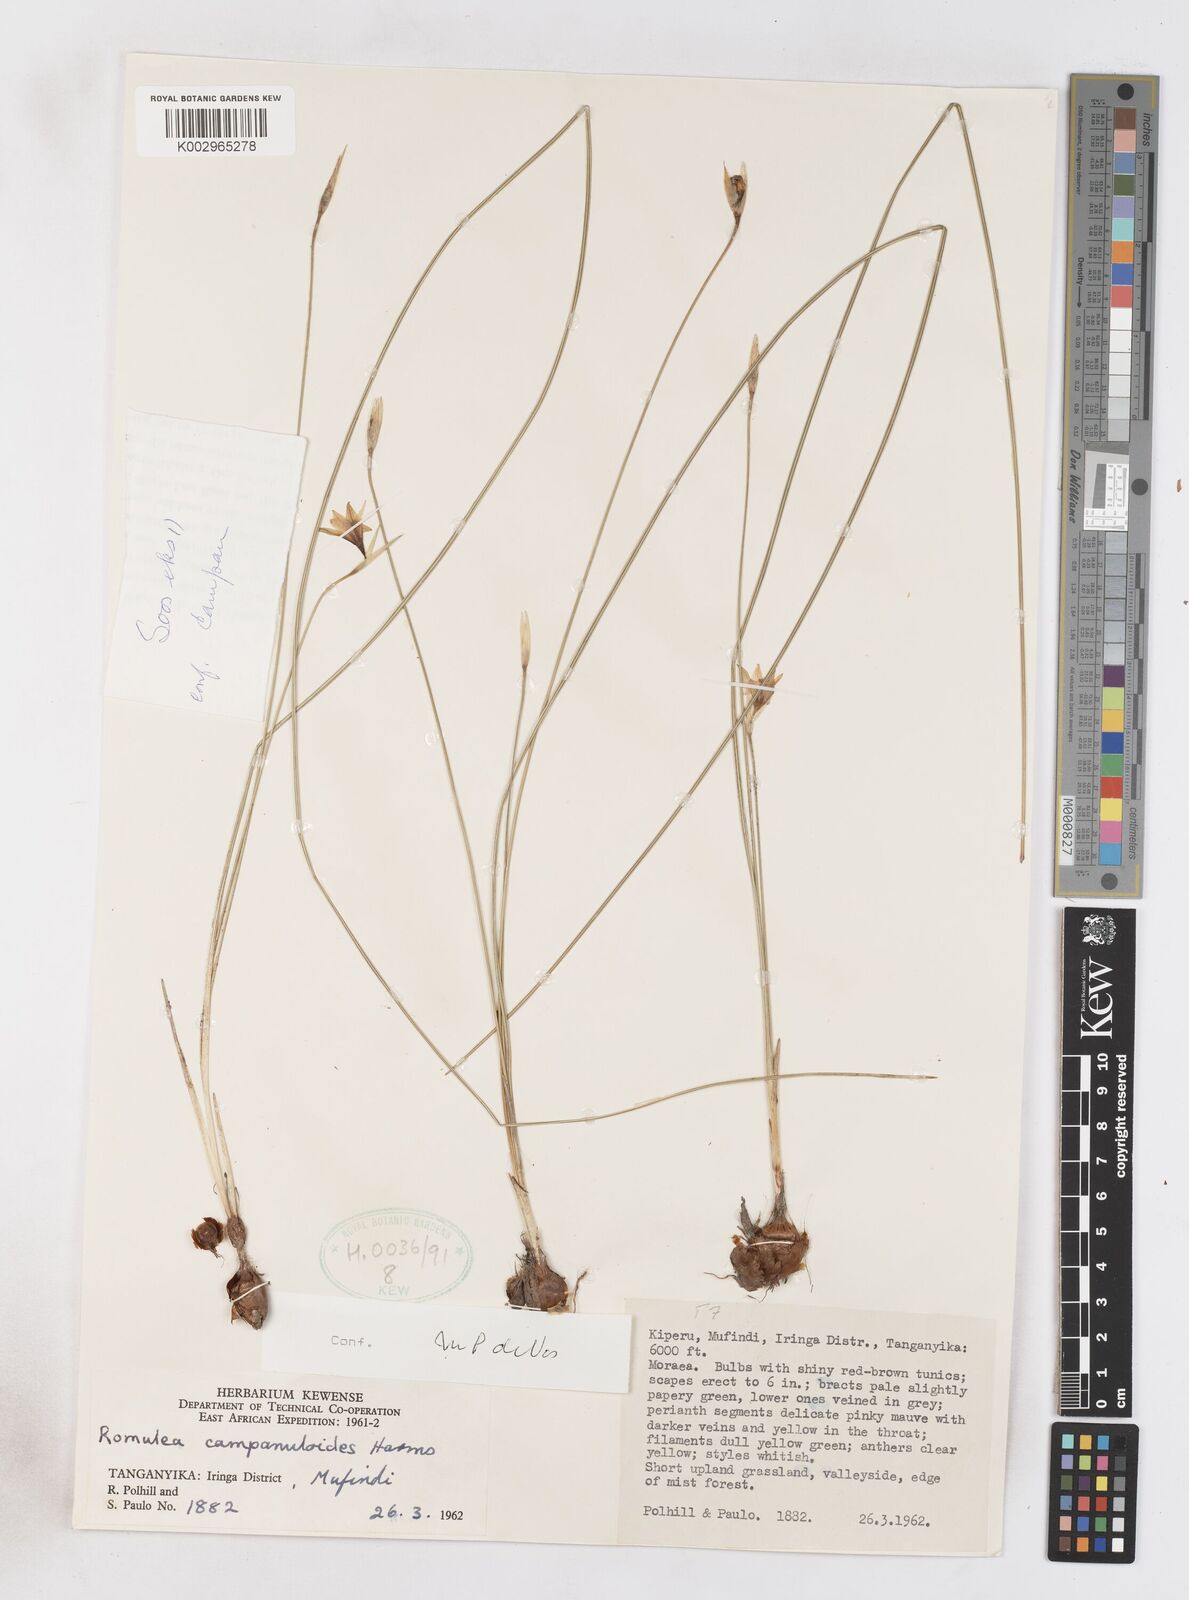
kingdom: Plantae
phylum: Tracheophyta
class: Liliopsida
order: Asparagales
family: Iridaceae
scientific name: Iridaceae
